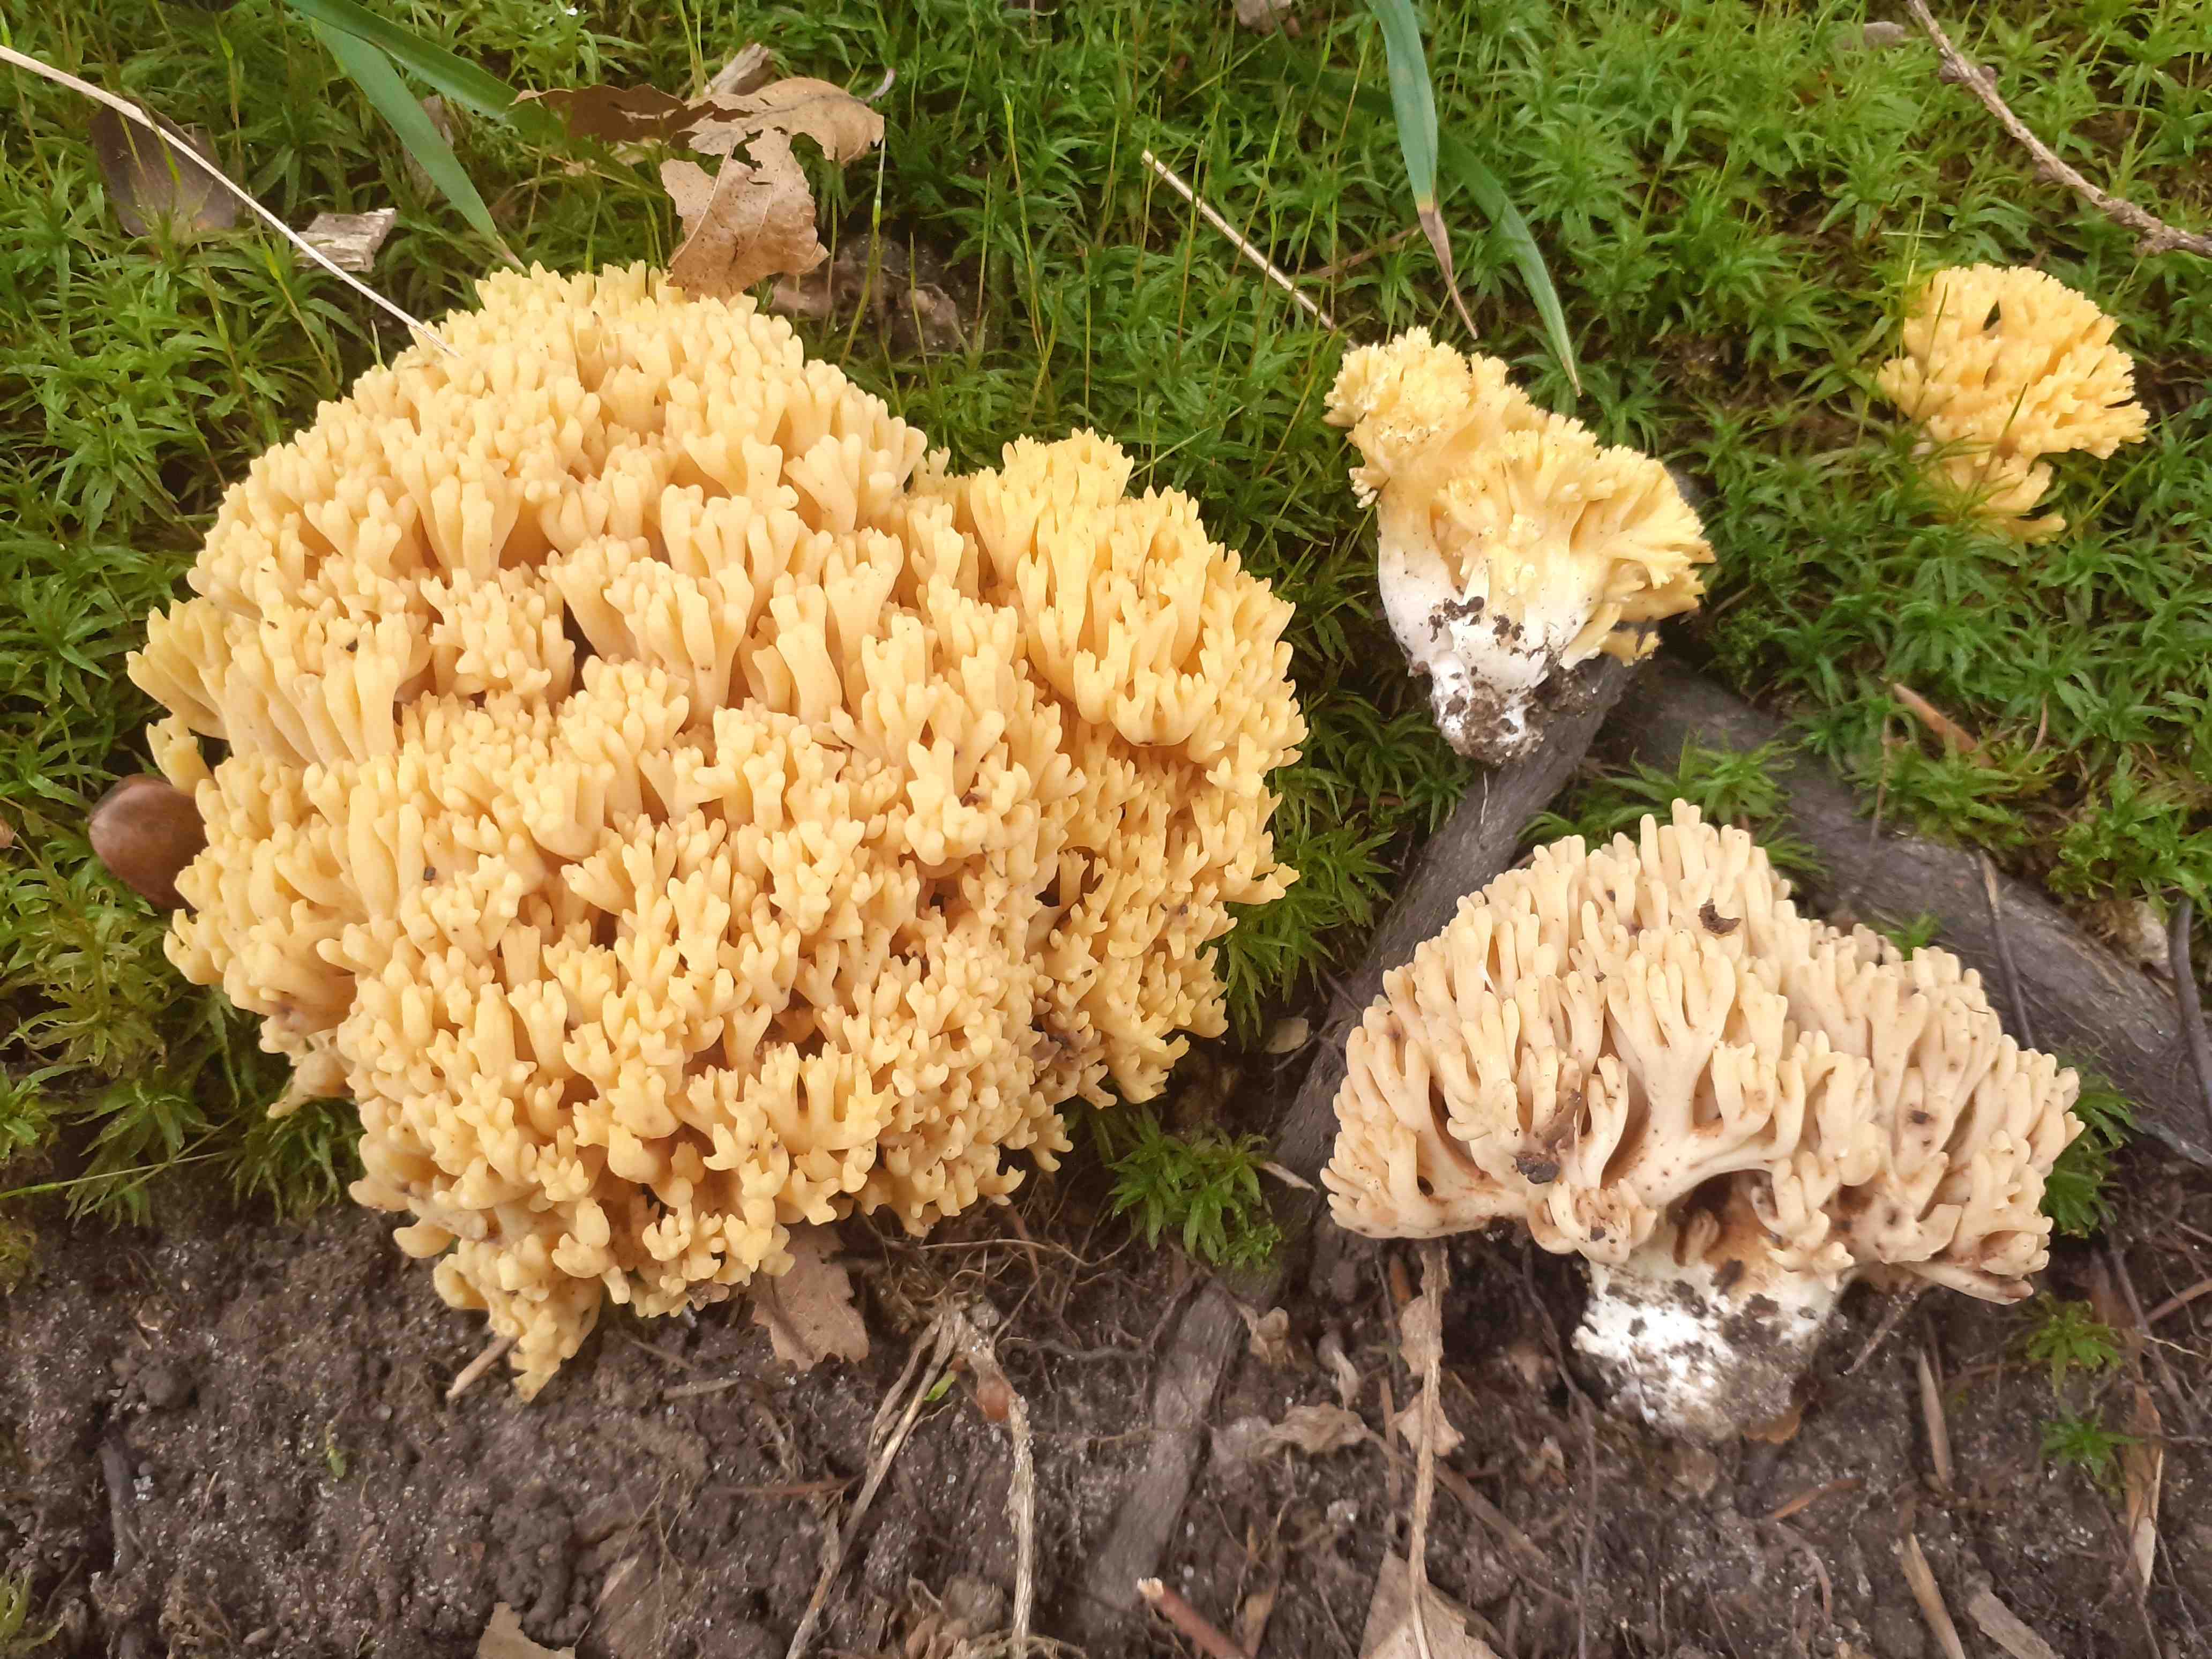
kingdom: Fungi
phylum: Basidiomycota
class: Agaricomycetes
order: Gomphales
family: Gomphaceae
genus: Ramaria
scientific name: Ramaria krieglsteineri
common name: smalsporet koralsvamp
